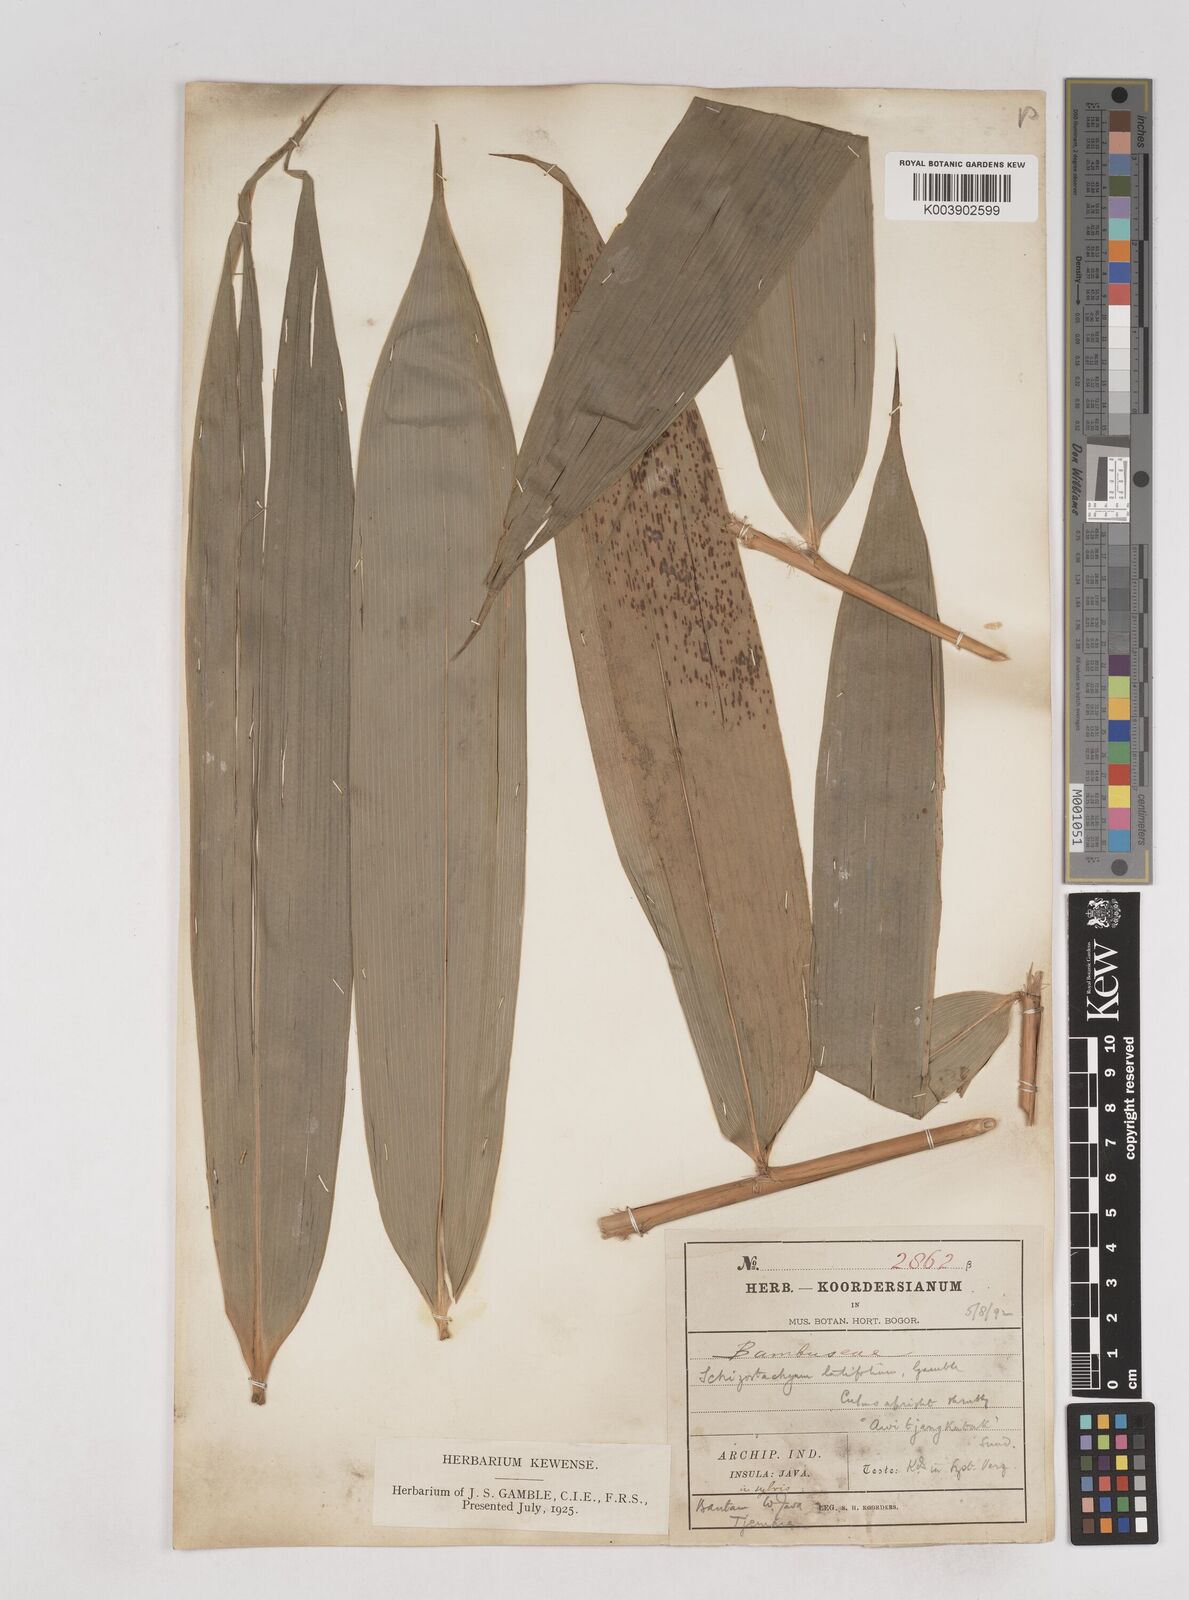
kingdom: Plantae
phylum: Tracheophyta
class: Liliopsida
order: Poales
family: Poaceae
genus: Schizostachyum
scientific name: Schizostachyum
